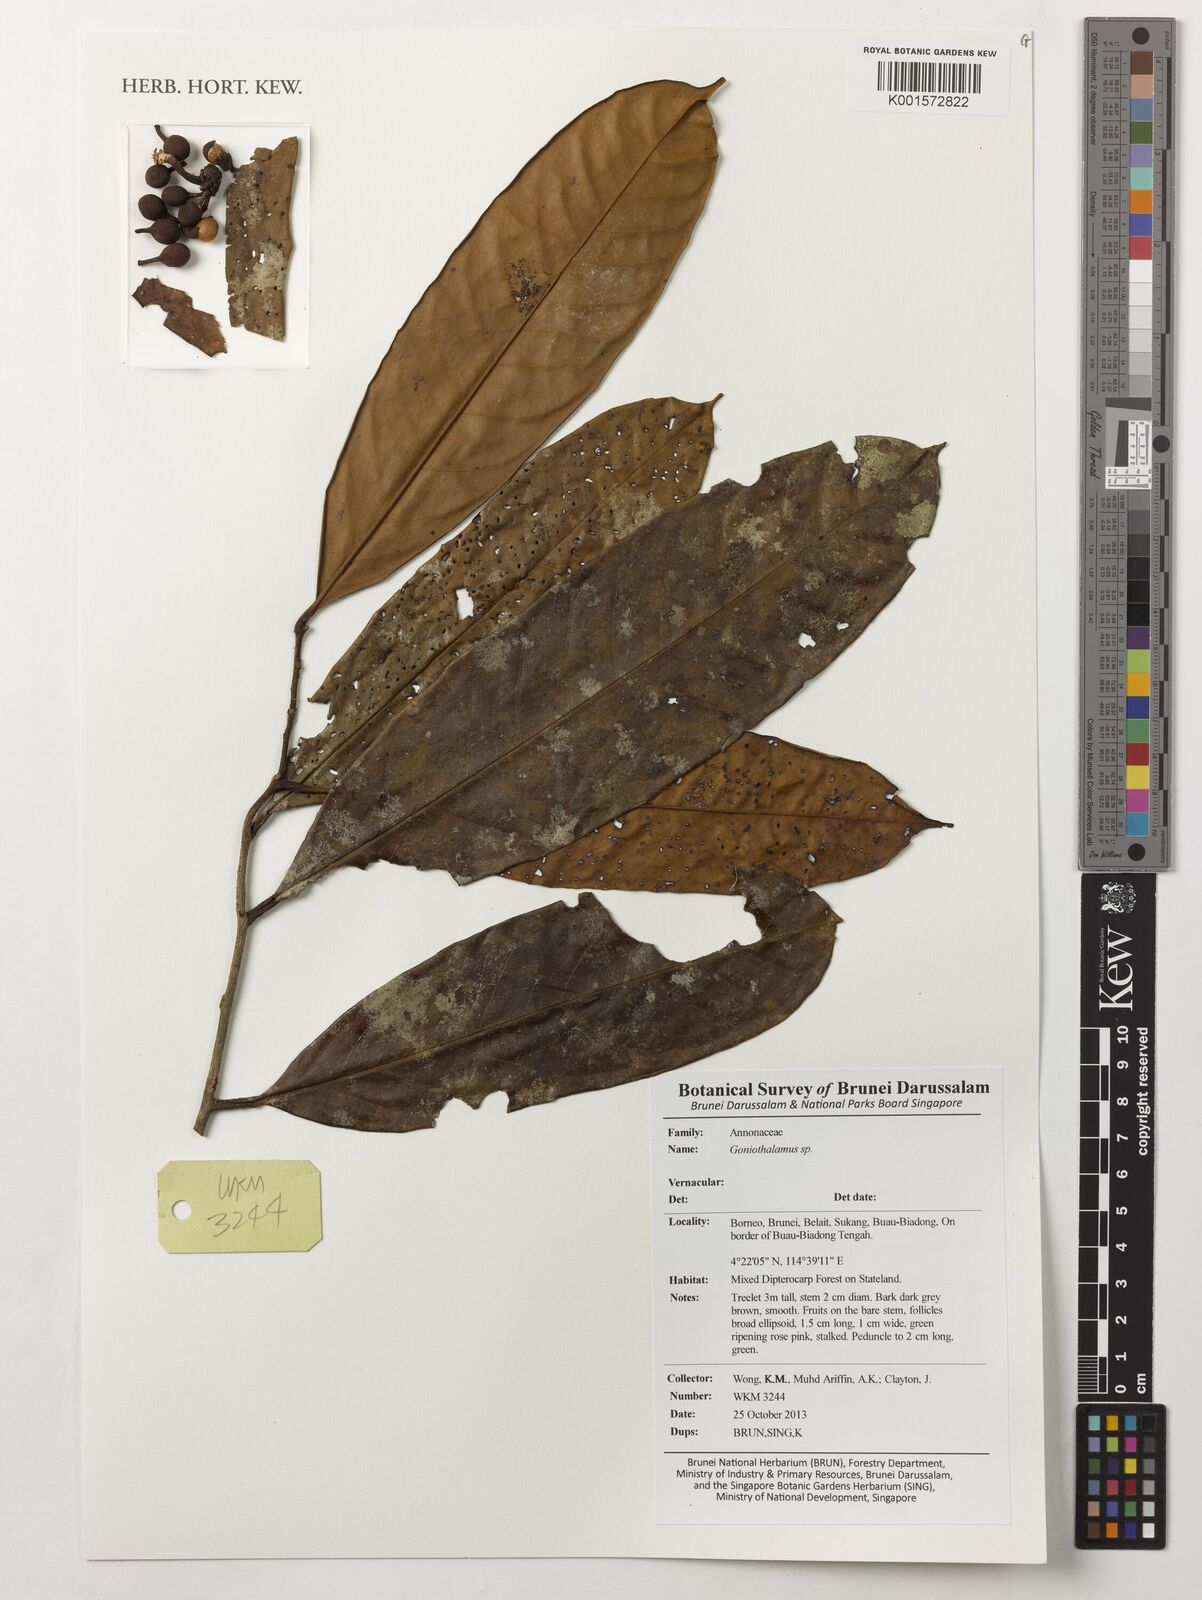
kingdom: Plantae
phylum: Tracheophyta
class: Magnoliopsida
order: Magnoliales
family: Annonaceae
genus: Goniothalamus
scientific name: Goniothalamus
